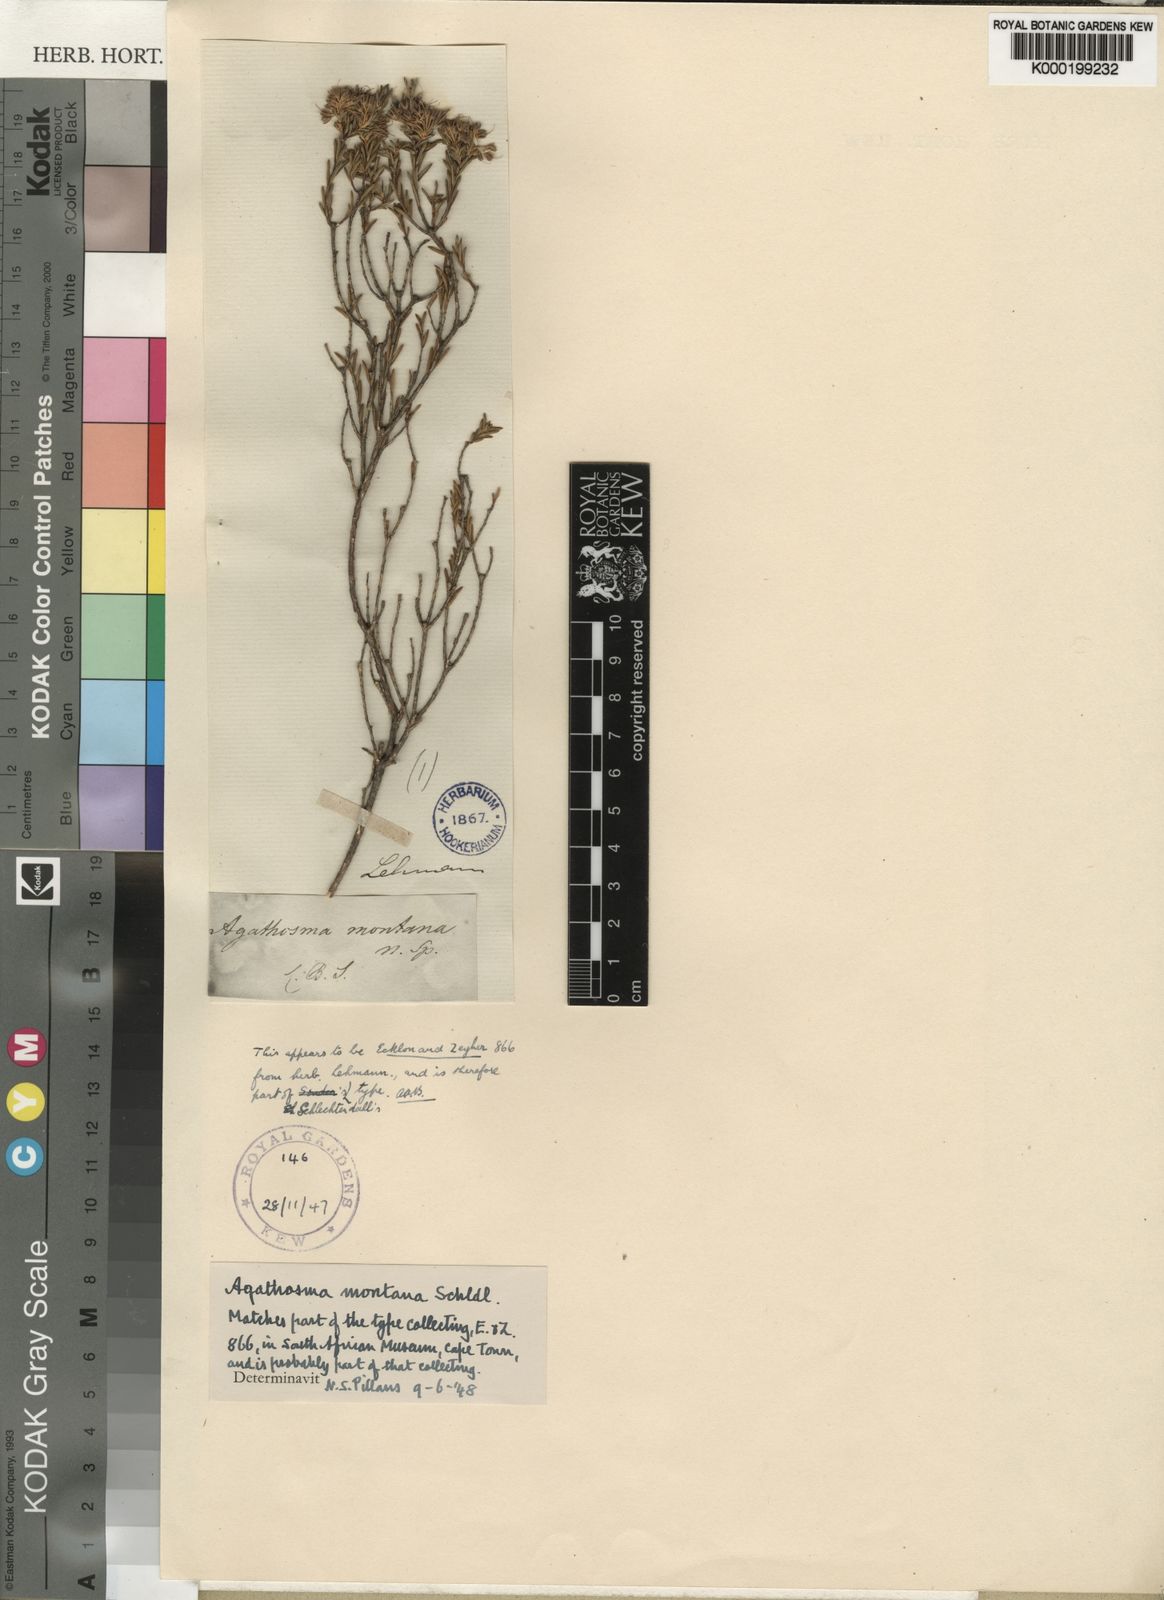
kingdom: Plantae
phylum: Tracheophyta
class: Magnoliopsida
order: Sapindales
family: Rutaceae
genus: Agathosma
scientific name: Agathosma bifida
